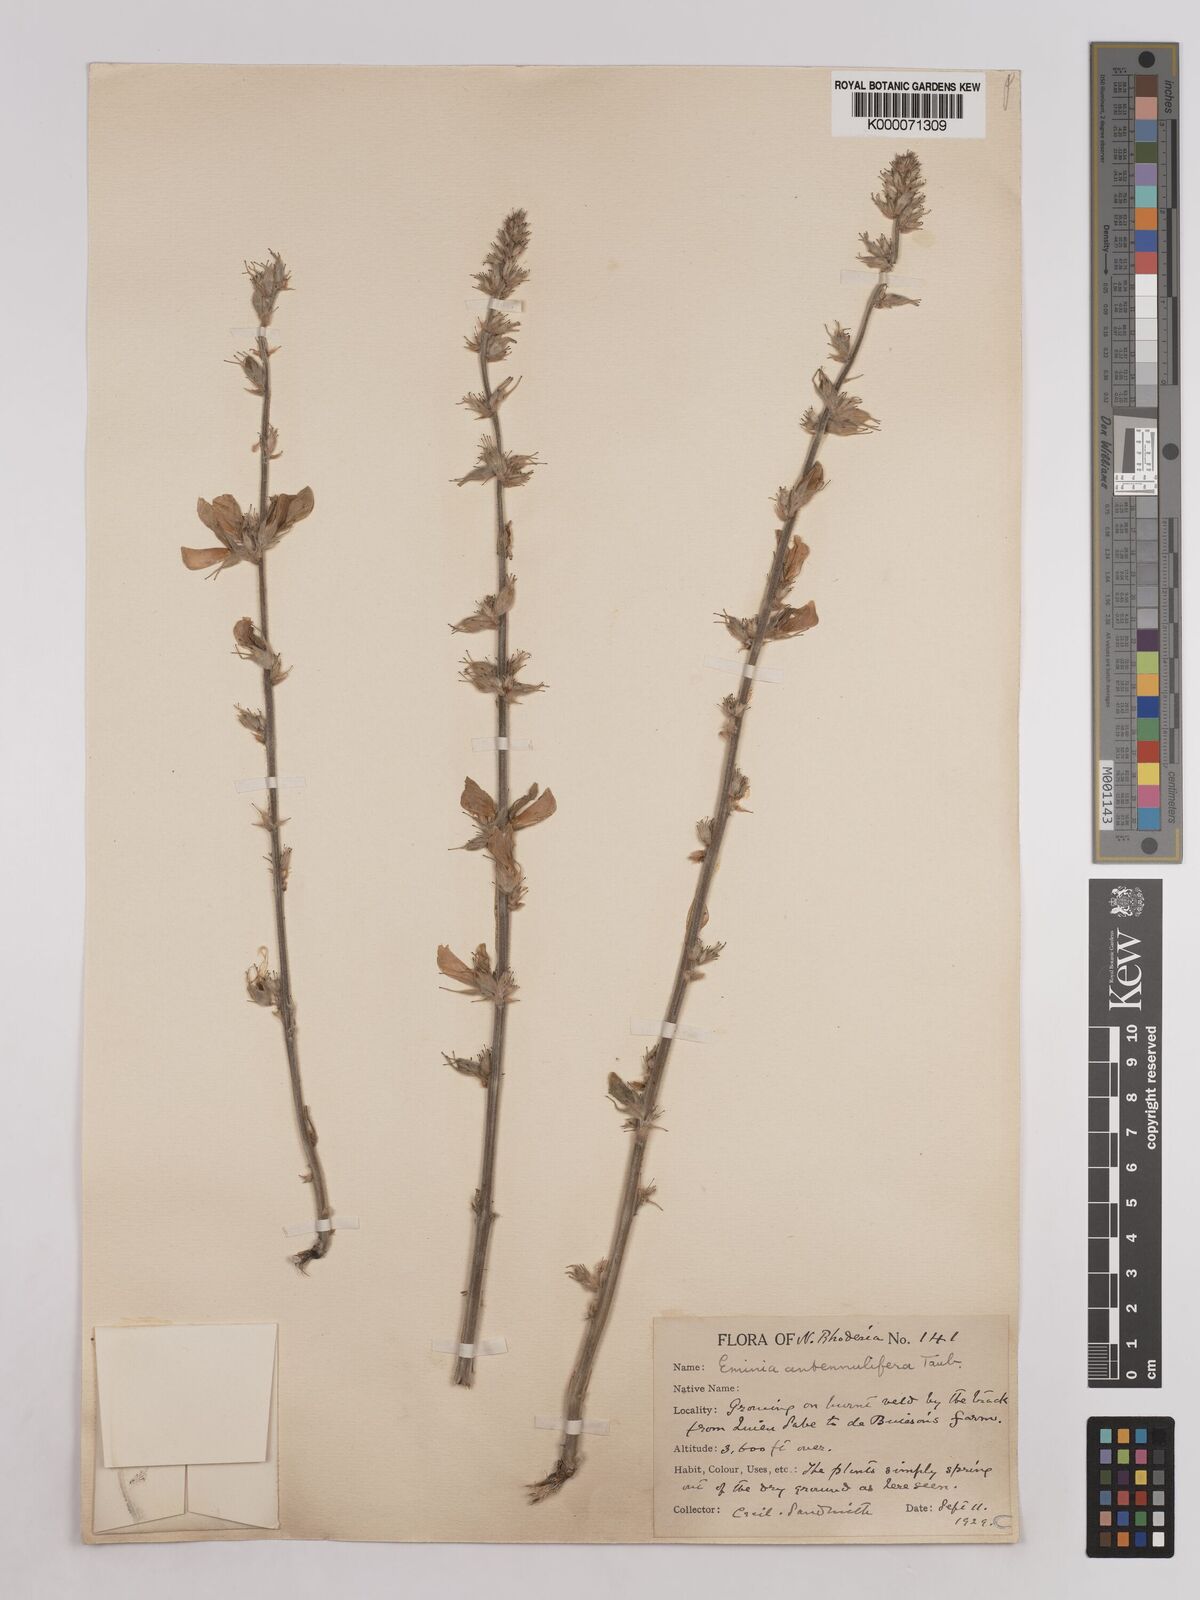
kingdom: Plantae
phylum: Tracheophyta
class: Magnoliopsida
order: Fabales
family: Fabaceae
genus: Eminia
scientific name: Eminia antennulifera
